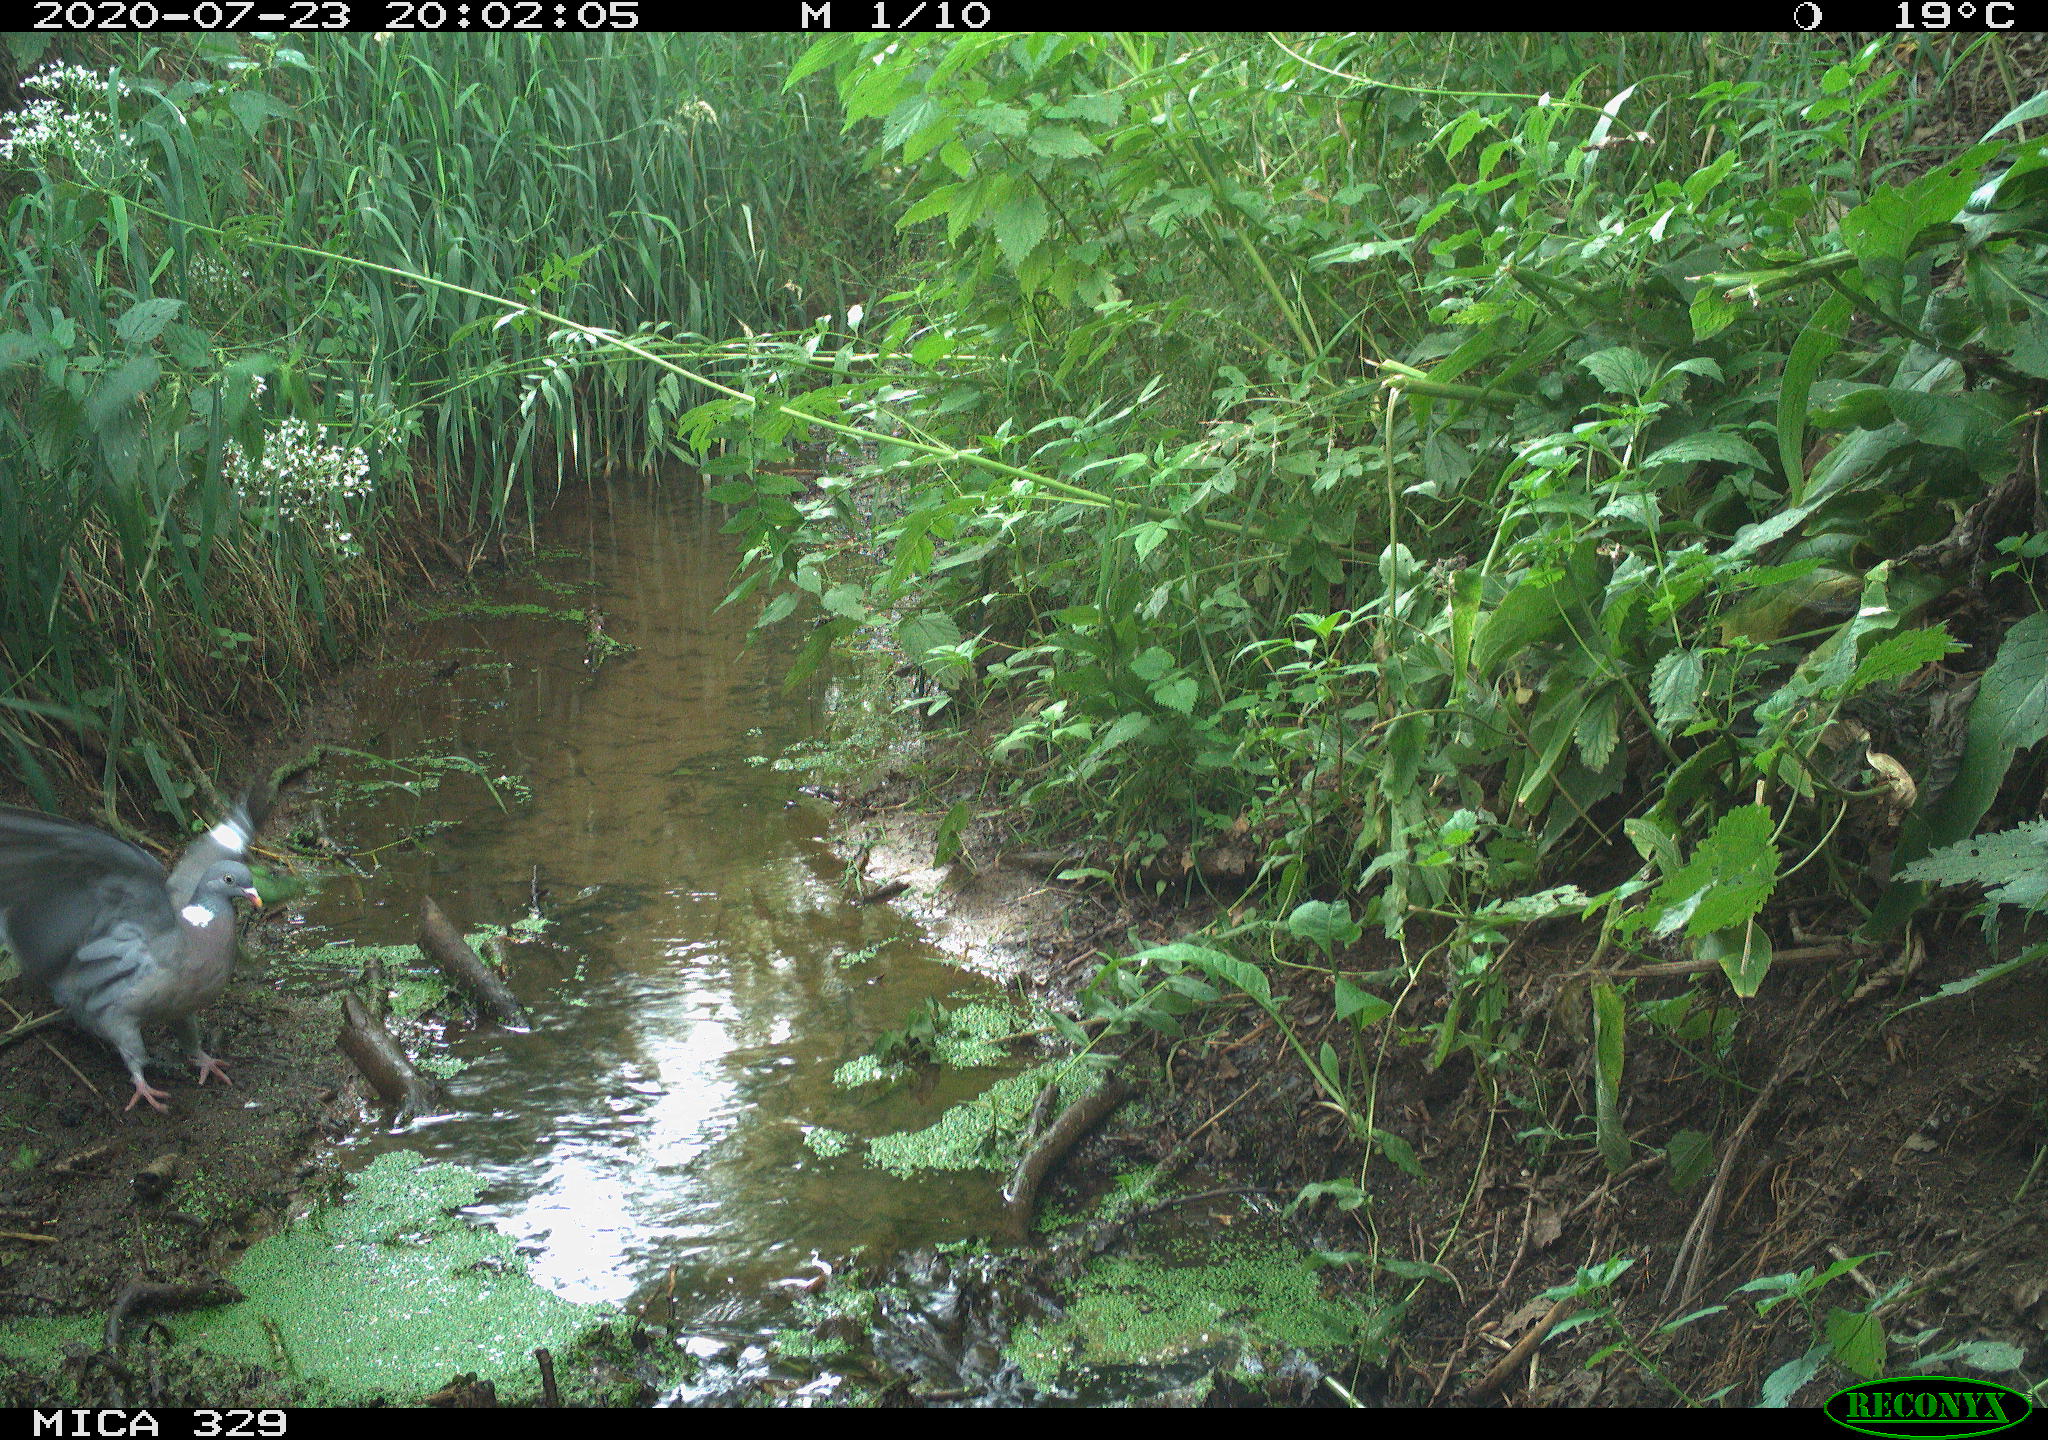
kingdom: Animalia
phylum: Chordata
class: Aves
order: Columbiformes
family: Columbidae
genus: Columba
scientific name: Columba palumbus
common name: Common wood pigeon
